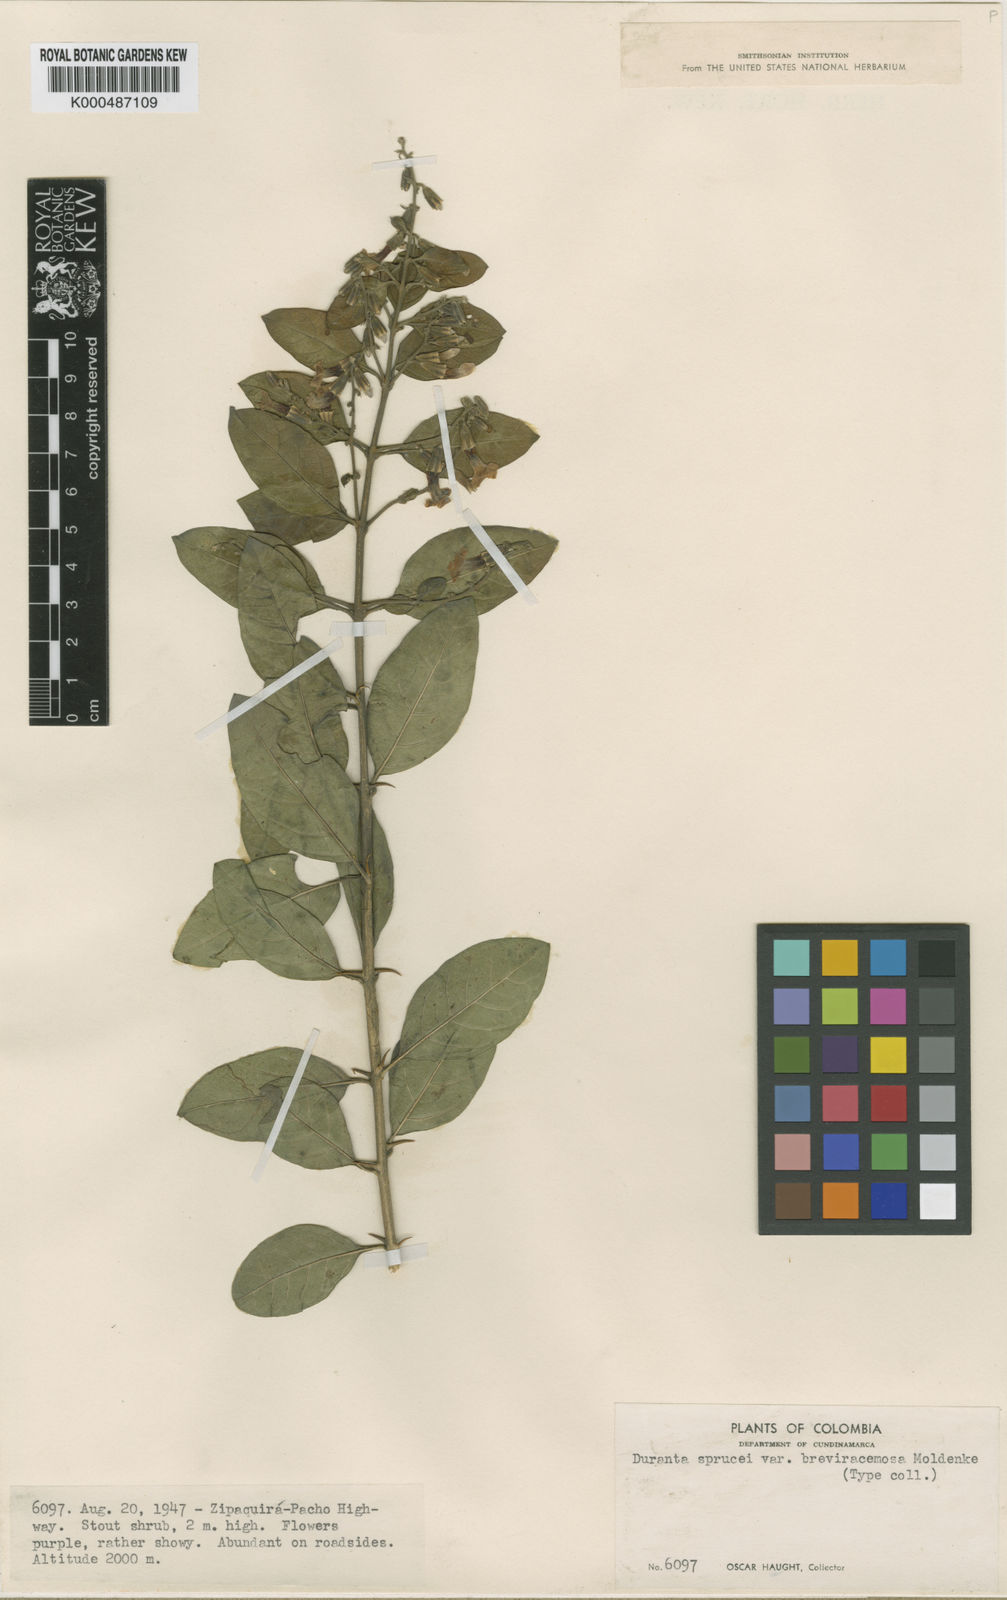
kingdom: Plantae
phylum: Tracheophyta
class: Magnoliopsida
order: Lamiales
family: Verbenaceae
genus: Duranta
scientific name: Duranta mutisii
